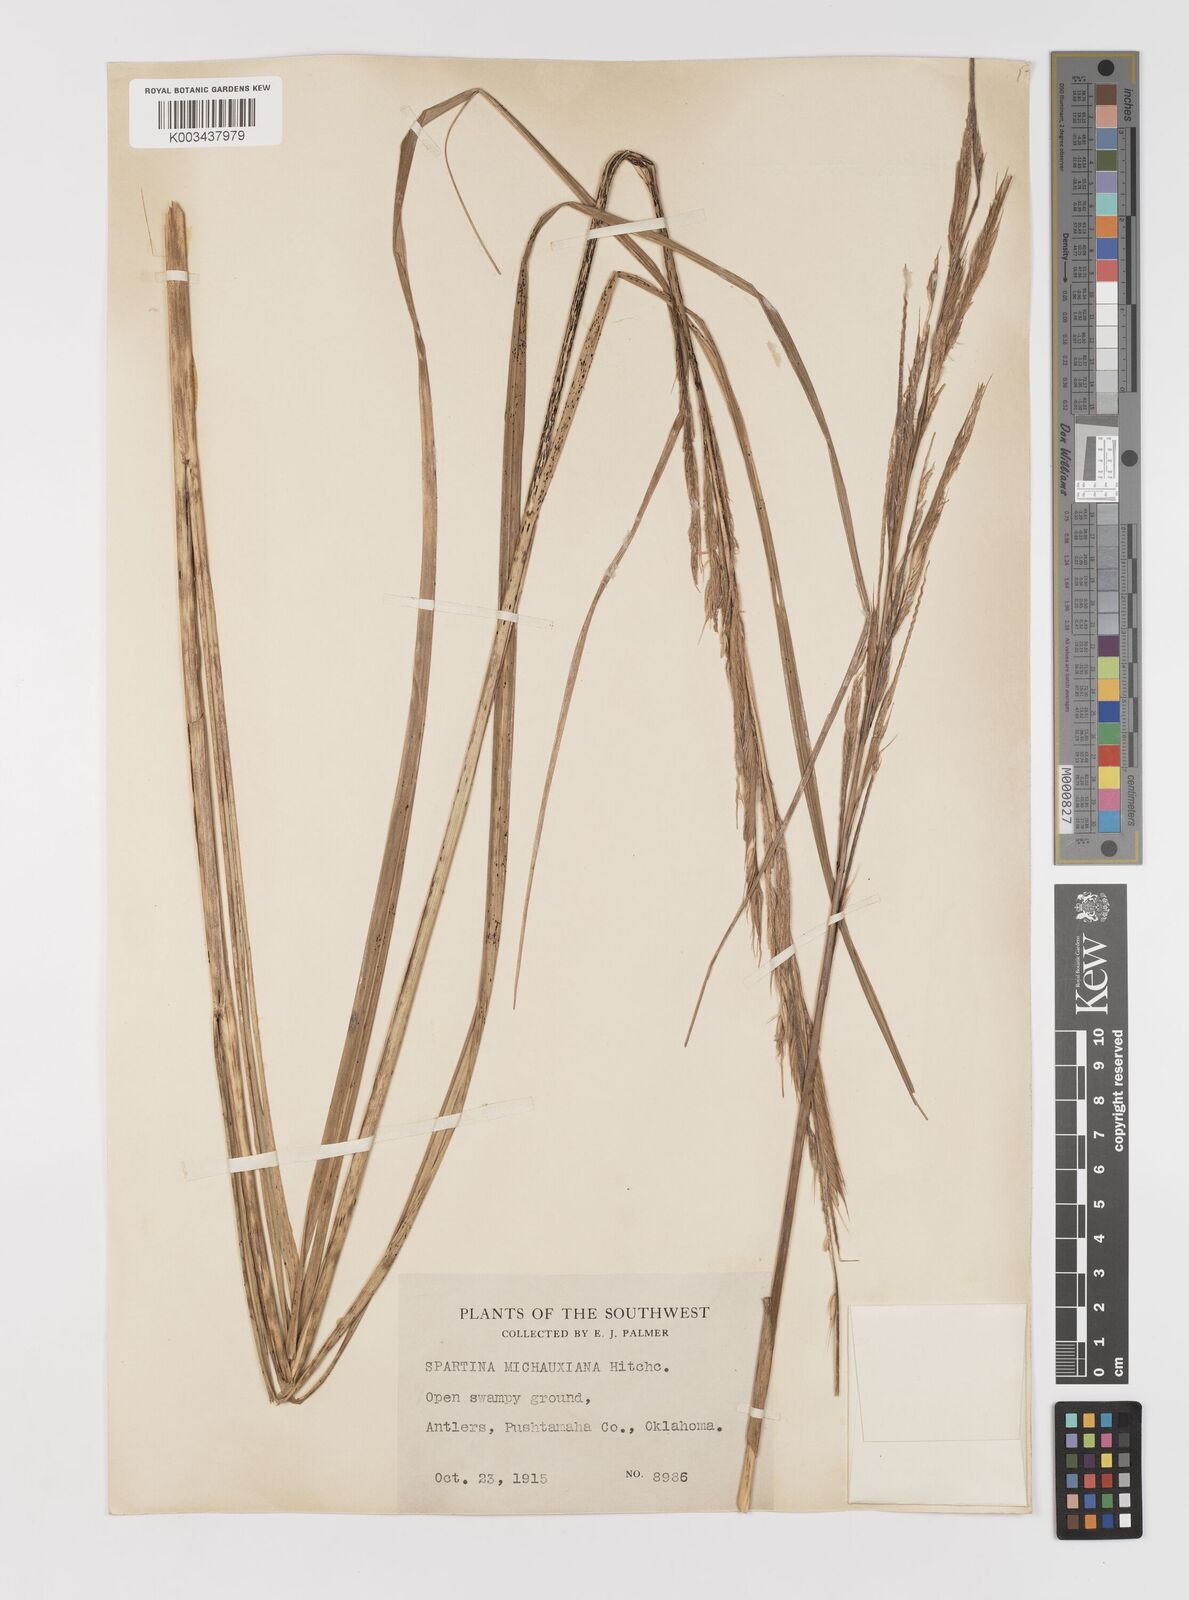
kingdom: Plantae
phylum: Tracheophyta
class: Liliopsida
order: Poales
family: Poaceae
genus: Sporobolus
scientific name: Sporobolus michauxianus
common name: Freshwater cordgrass
